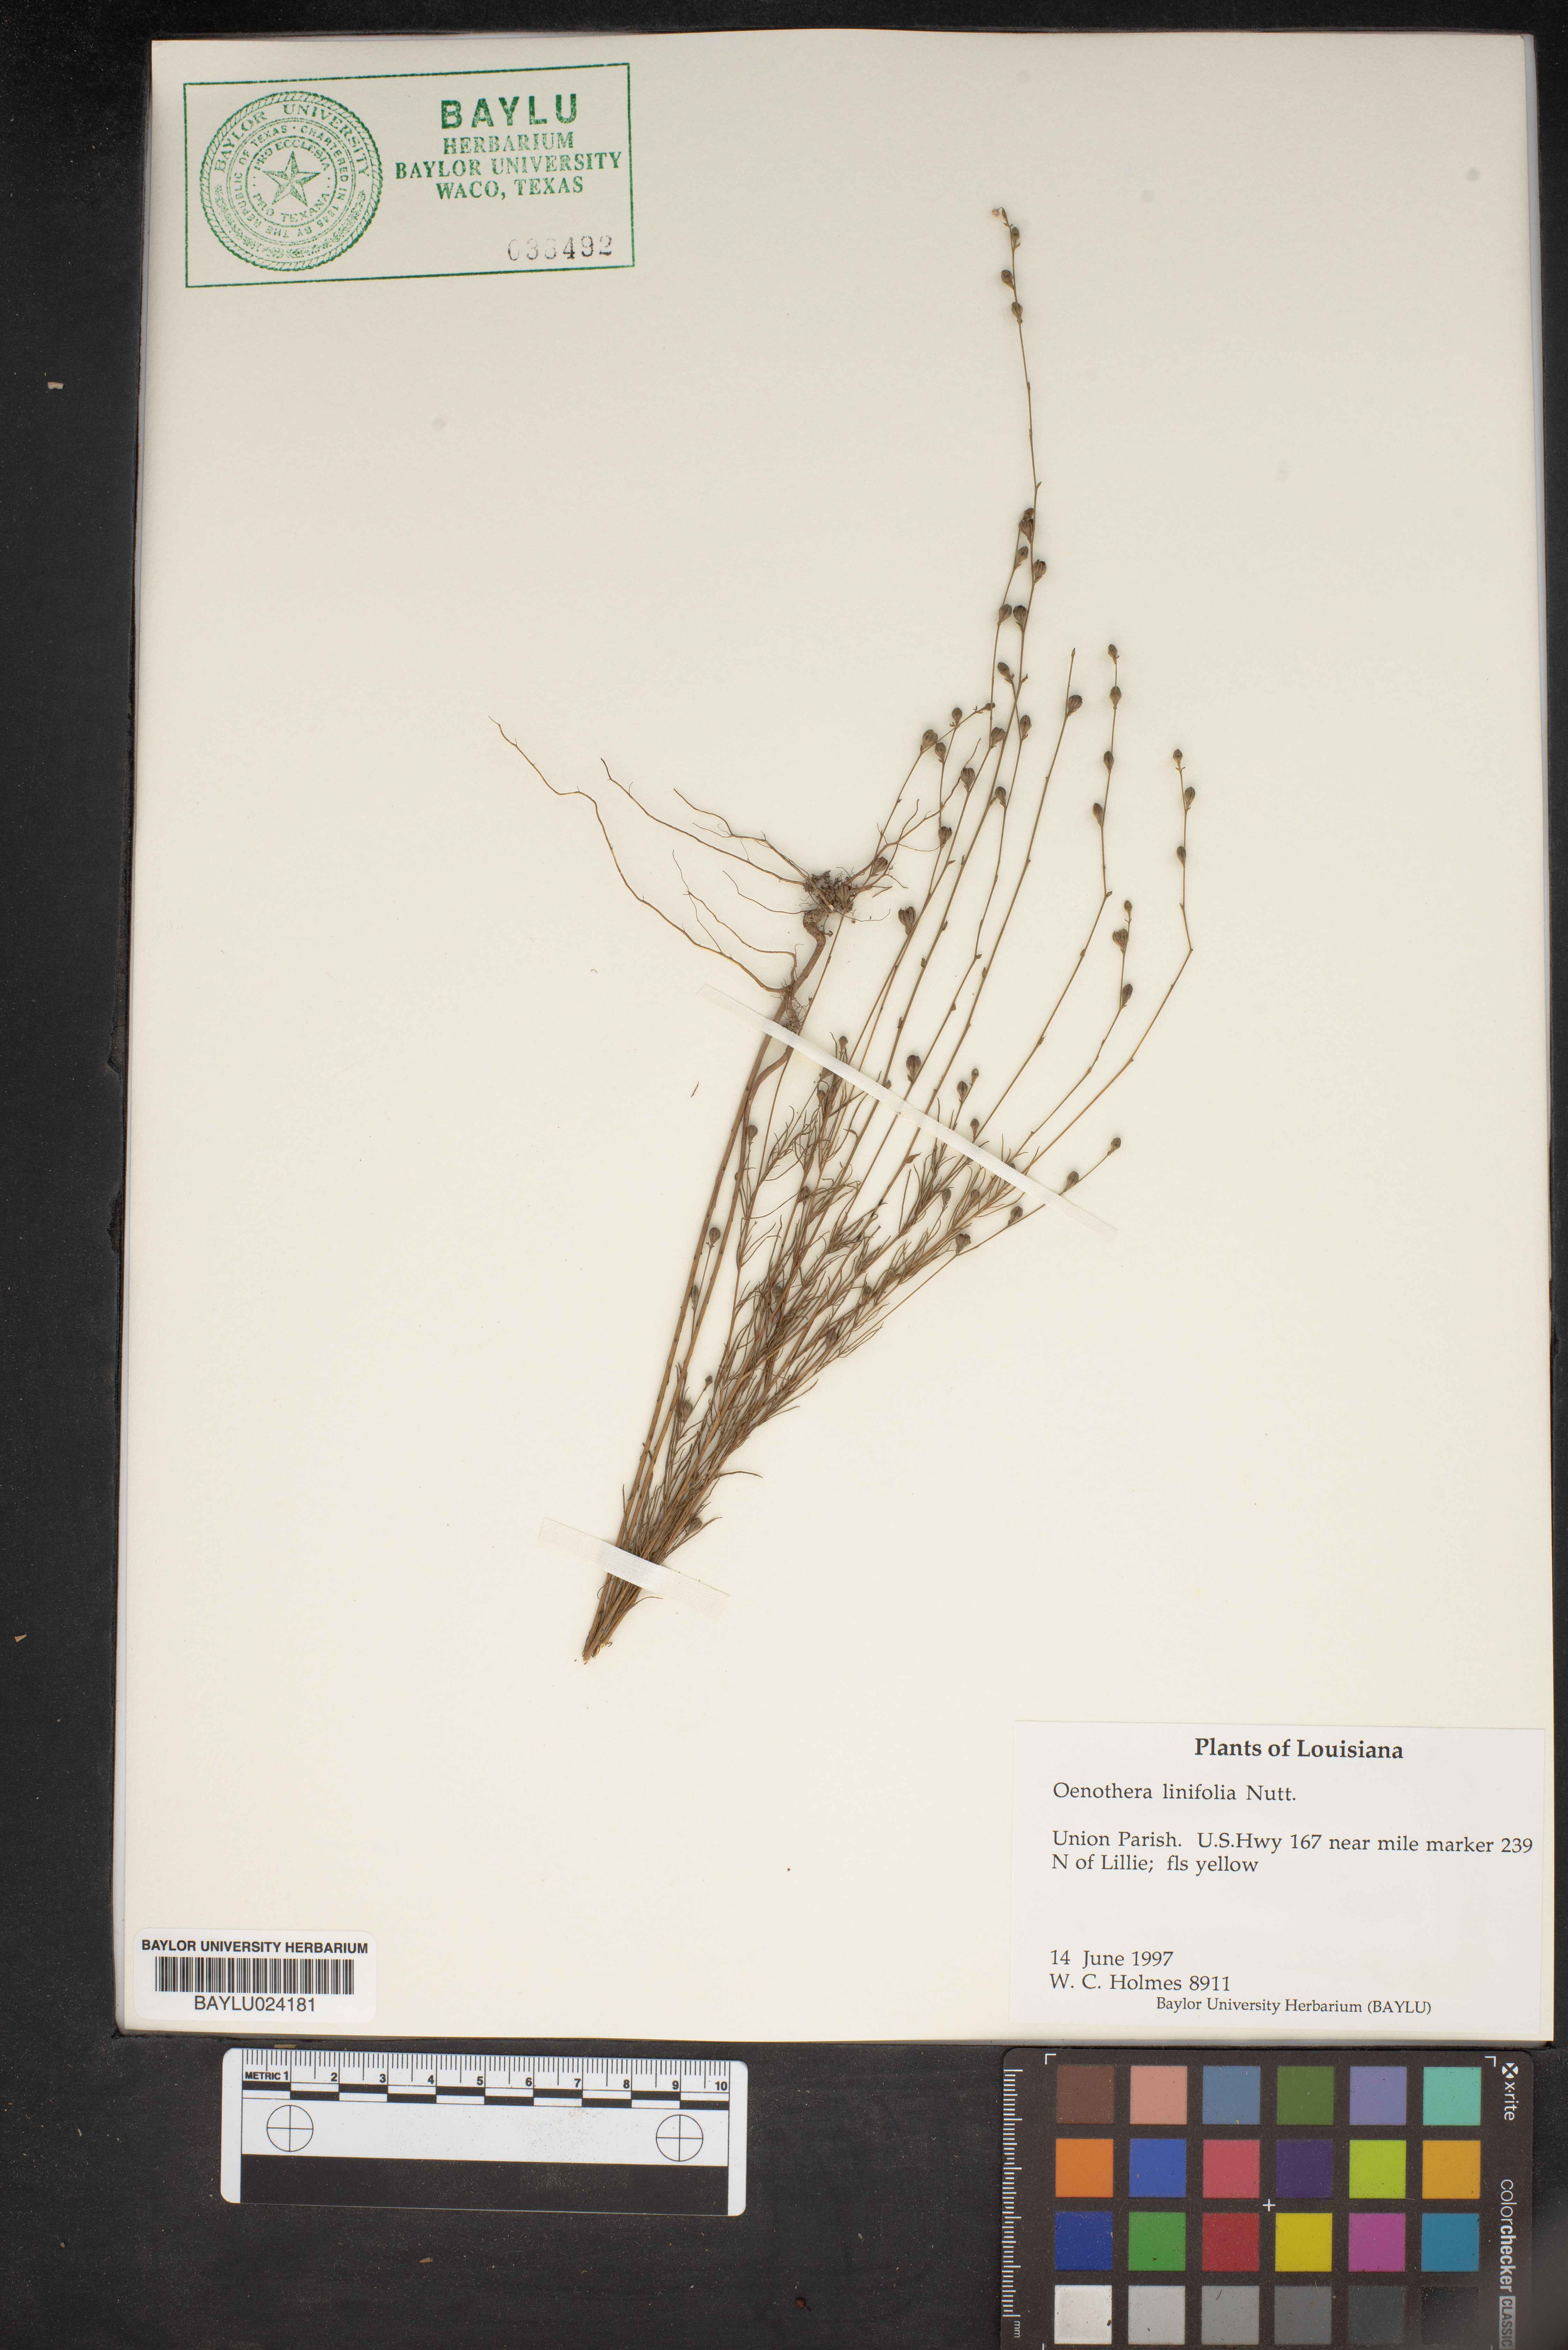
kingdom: Plantae
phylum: Tracheophyta
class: Magnoliopsida
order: Myrtales
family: Onagraceae
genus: Oenothera
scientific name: Oenothera linifolia
